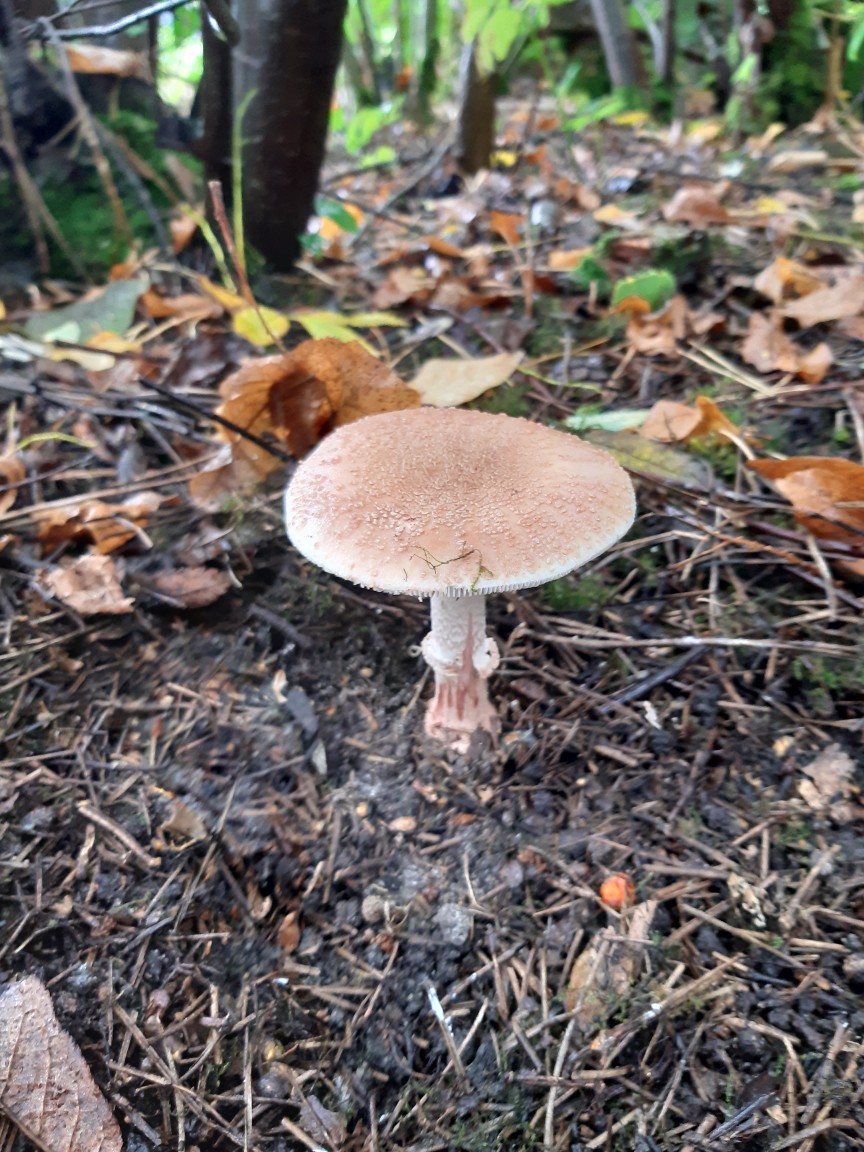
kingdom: Fungi
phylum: Basidiomycota
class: Agaricomycetes
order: Agaricales
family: Amanitaceae
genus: Amanita
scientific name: Amanita rubescens
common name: rødmende fluesvamp
